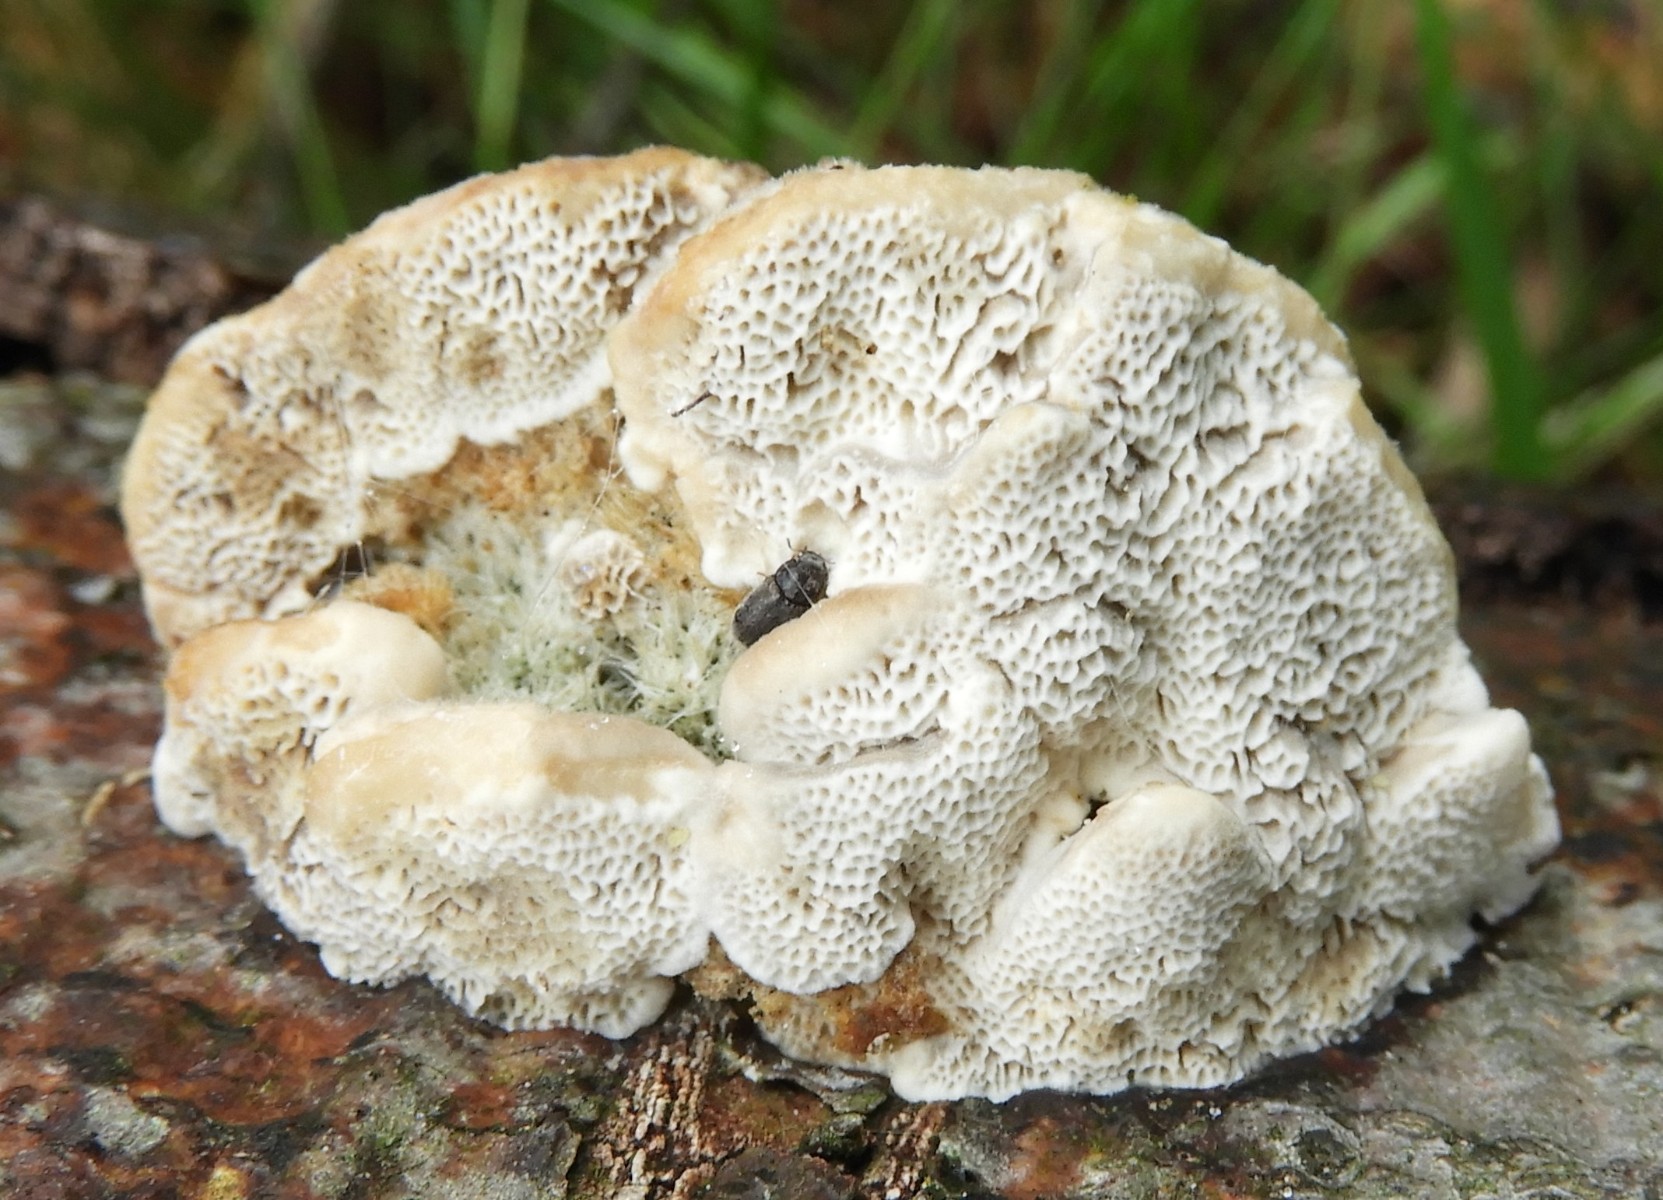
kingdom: Fungi
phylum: Basidiomycota
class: Agaricomycetes
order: Polyporales
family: Polyporaceae
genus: Trametes
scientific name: Trametes hirsuta
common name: håret læderporesvamp
